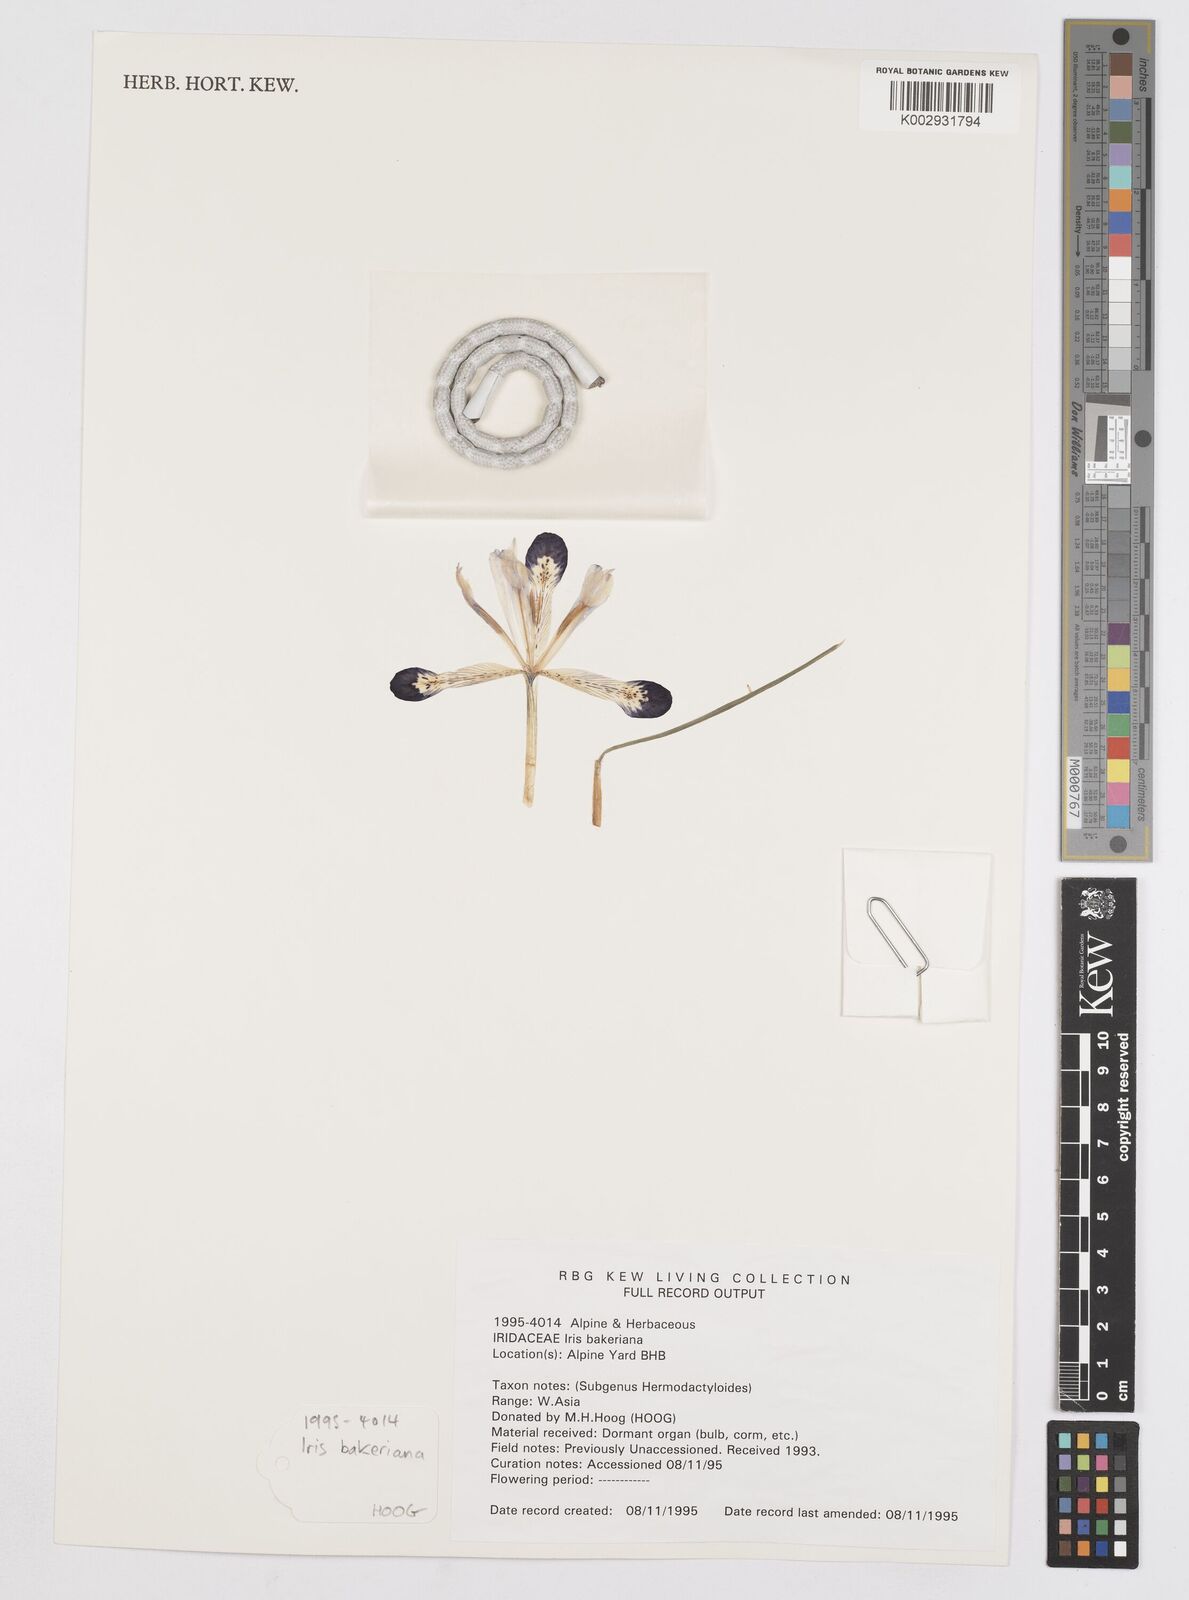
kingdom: Plantae
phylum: Tracheophyta
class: Liliopsida
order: Asparagales
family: Iridaceae
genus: Iris
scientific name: Iris reticulata
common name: Netted iris
